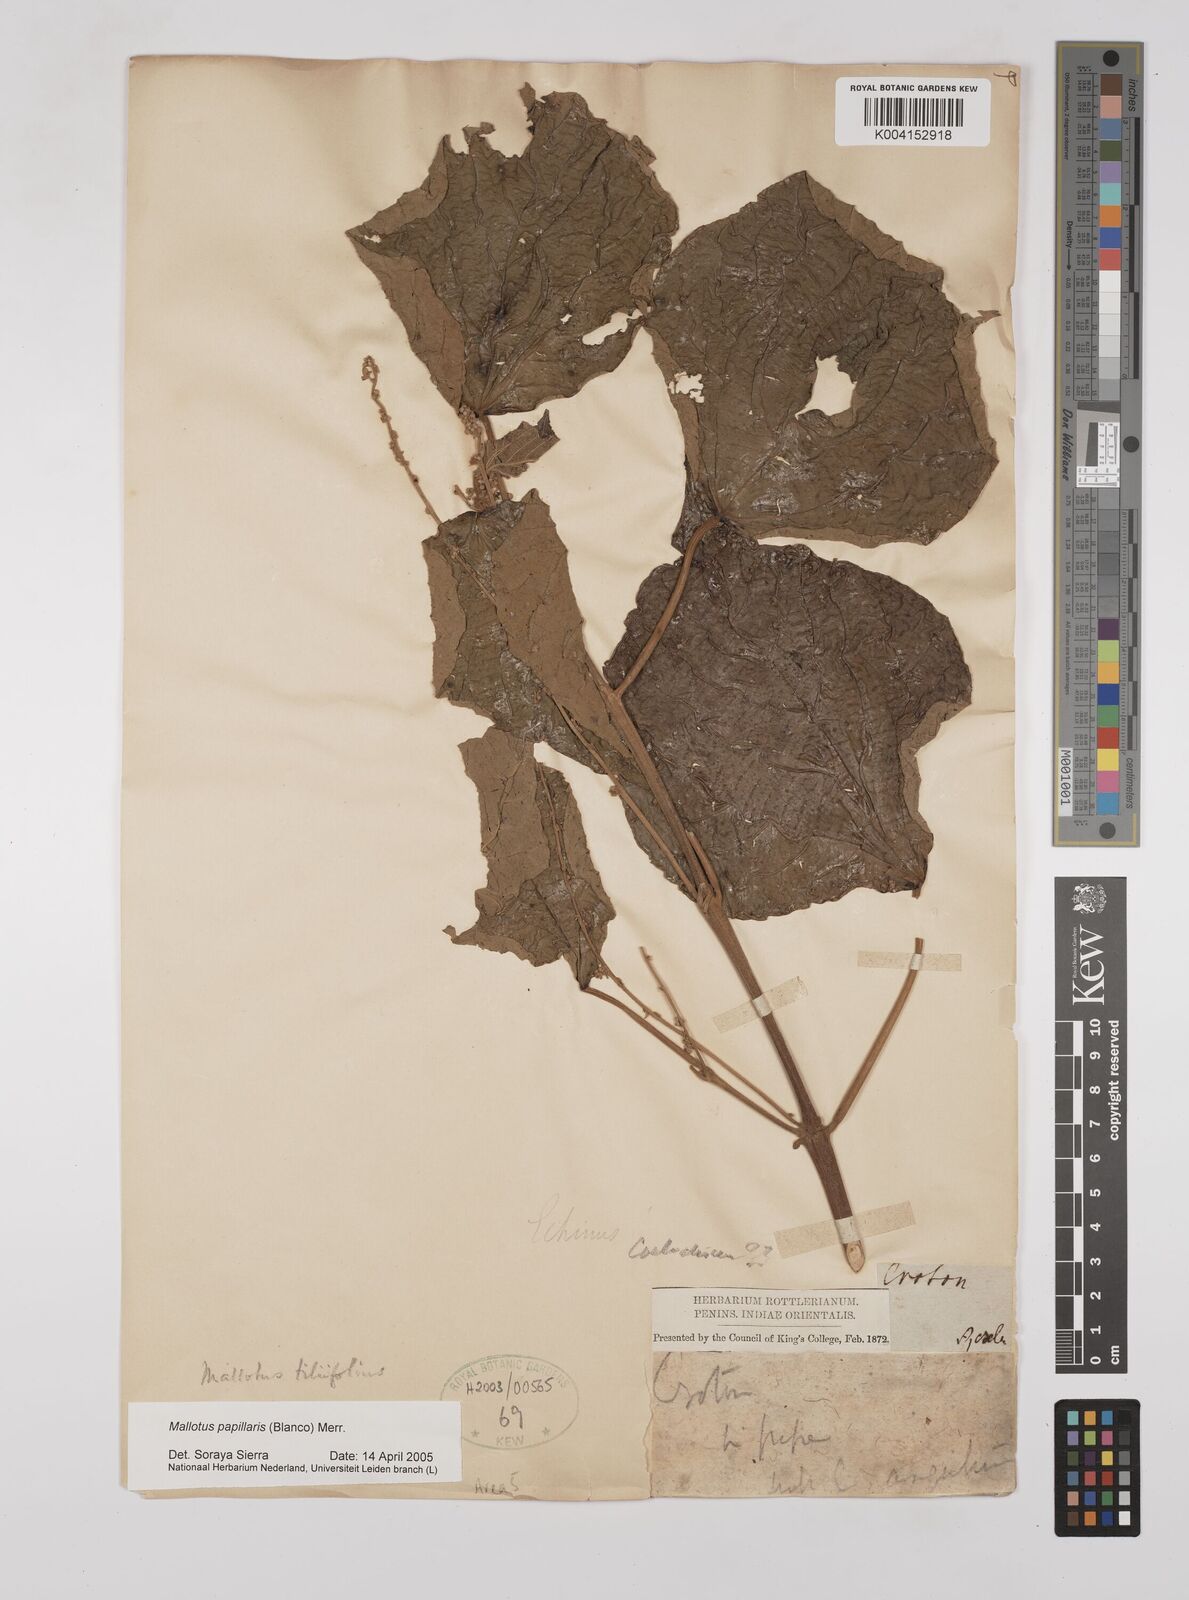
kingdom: Plantae
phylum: Tracheophyta
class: Magnoliopsida
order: Malpighiales
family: Euphorbiaceae
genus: Mallotus
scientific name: Mallotus tiliifolius
